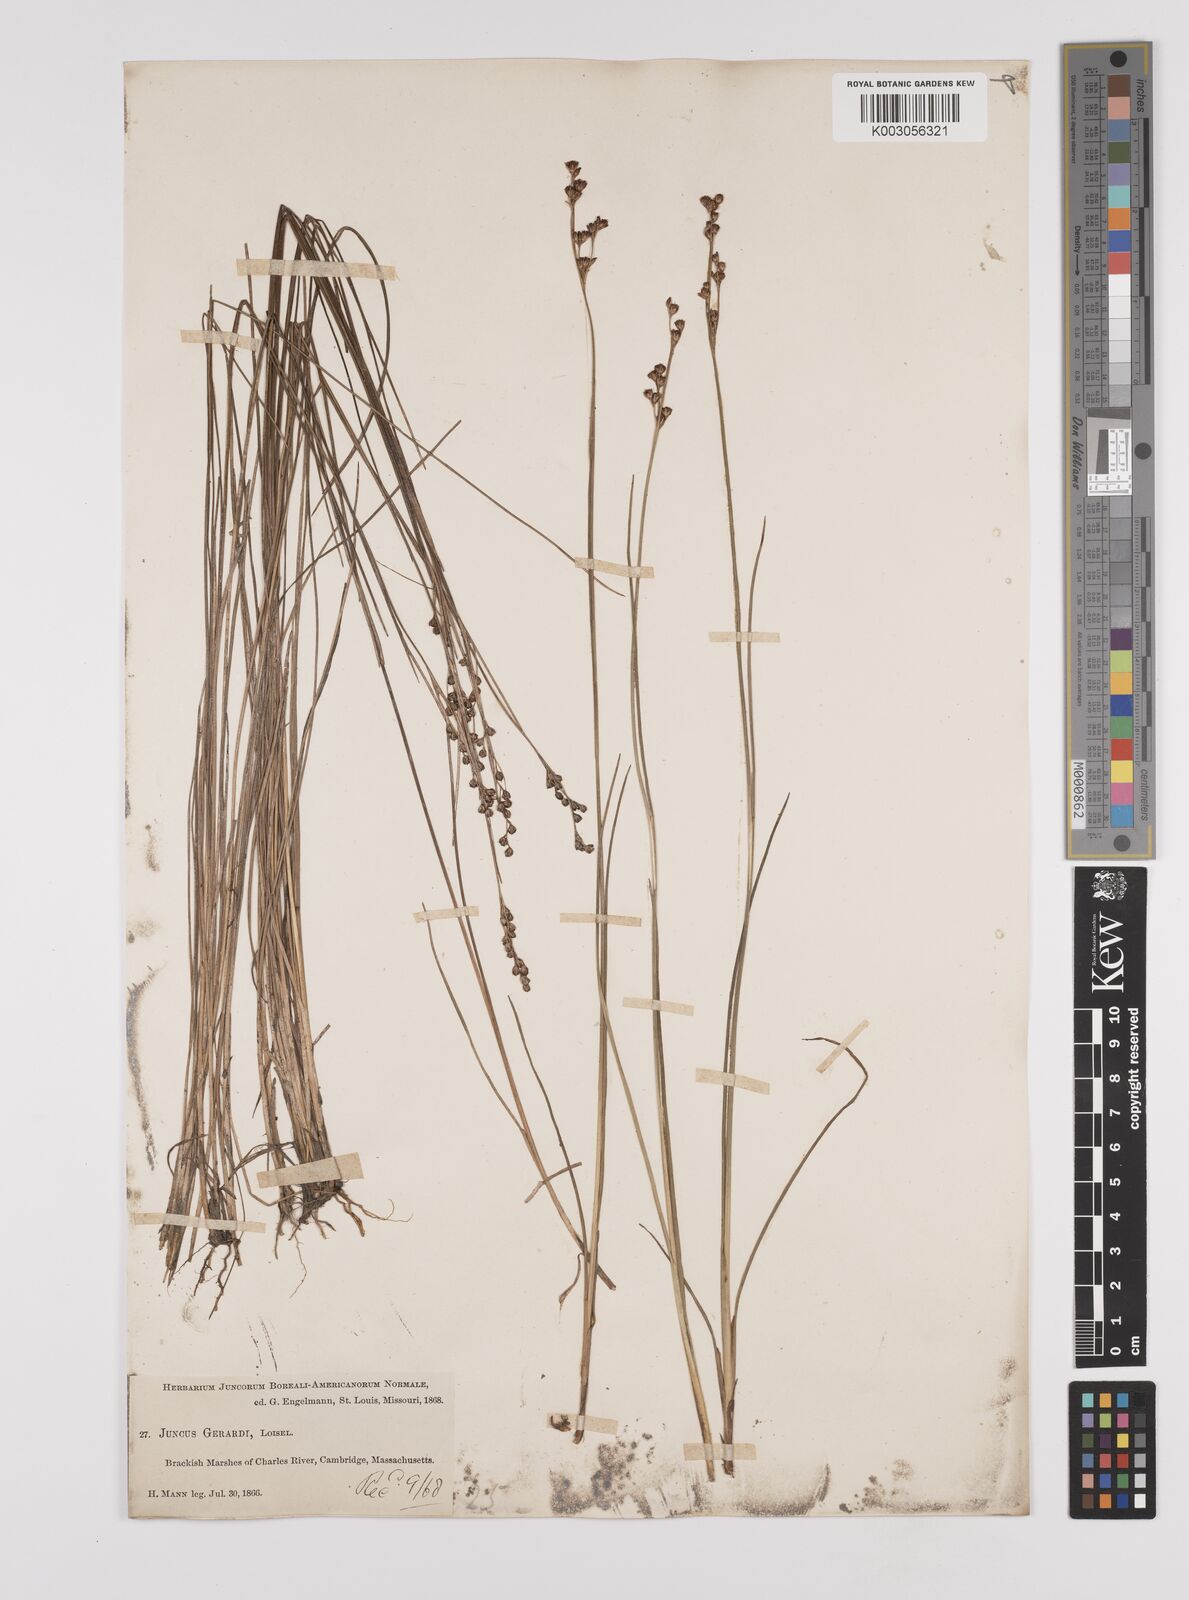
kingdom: Plantae
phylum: Tracheophyta
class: Liliopsida
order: Poales
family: Juncaceae
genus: Juncus
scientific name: Juncus gerardi
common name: Saltmarsh rush
